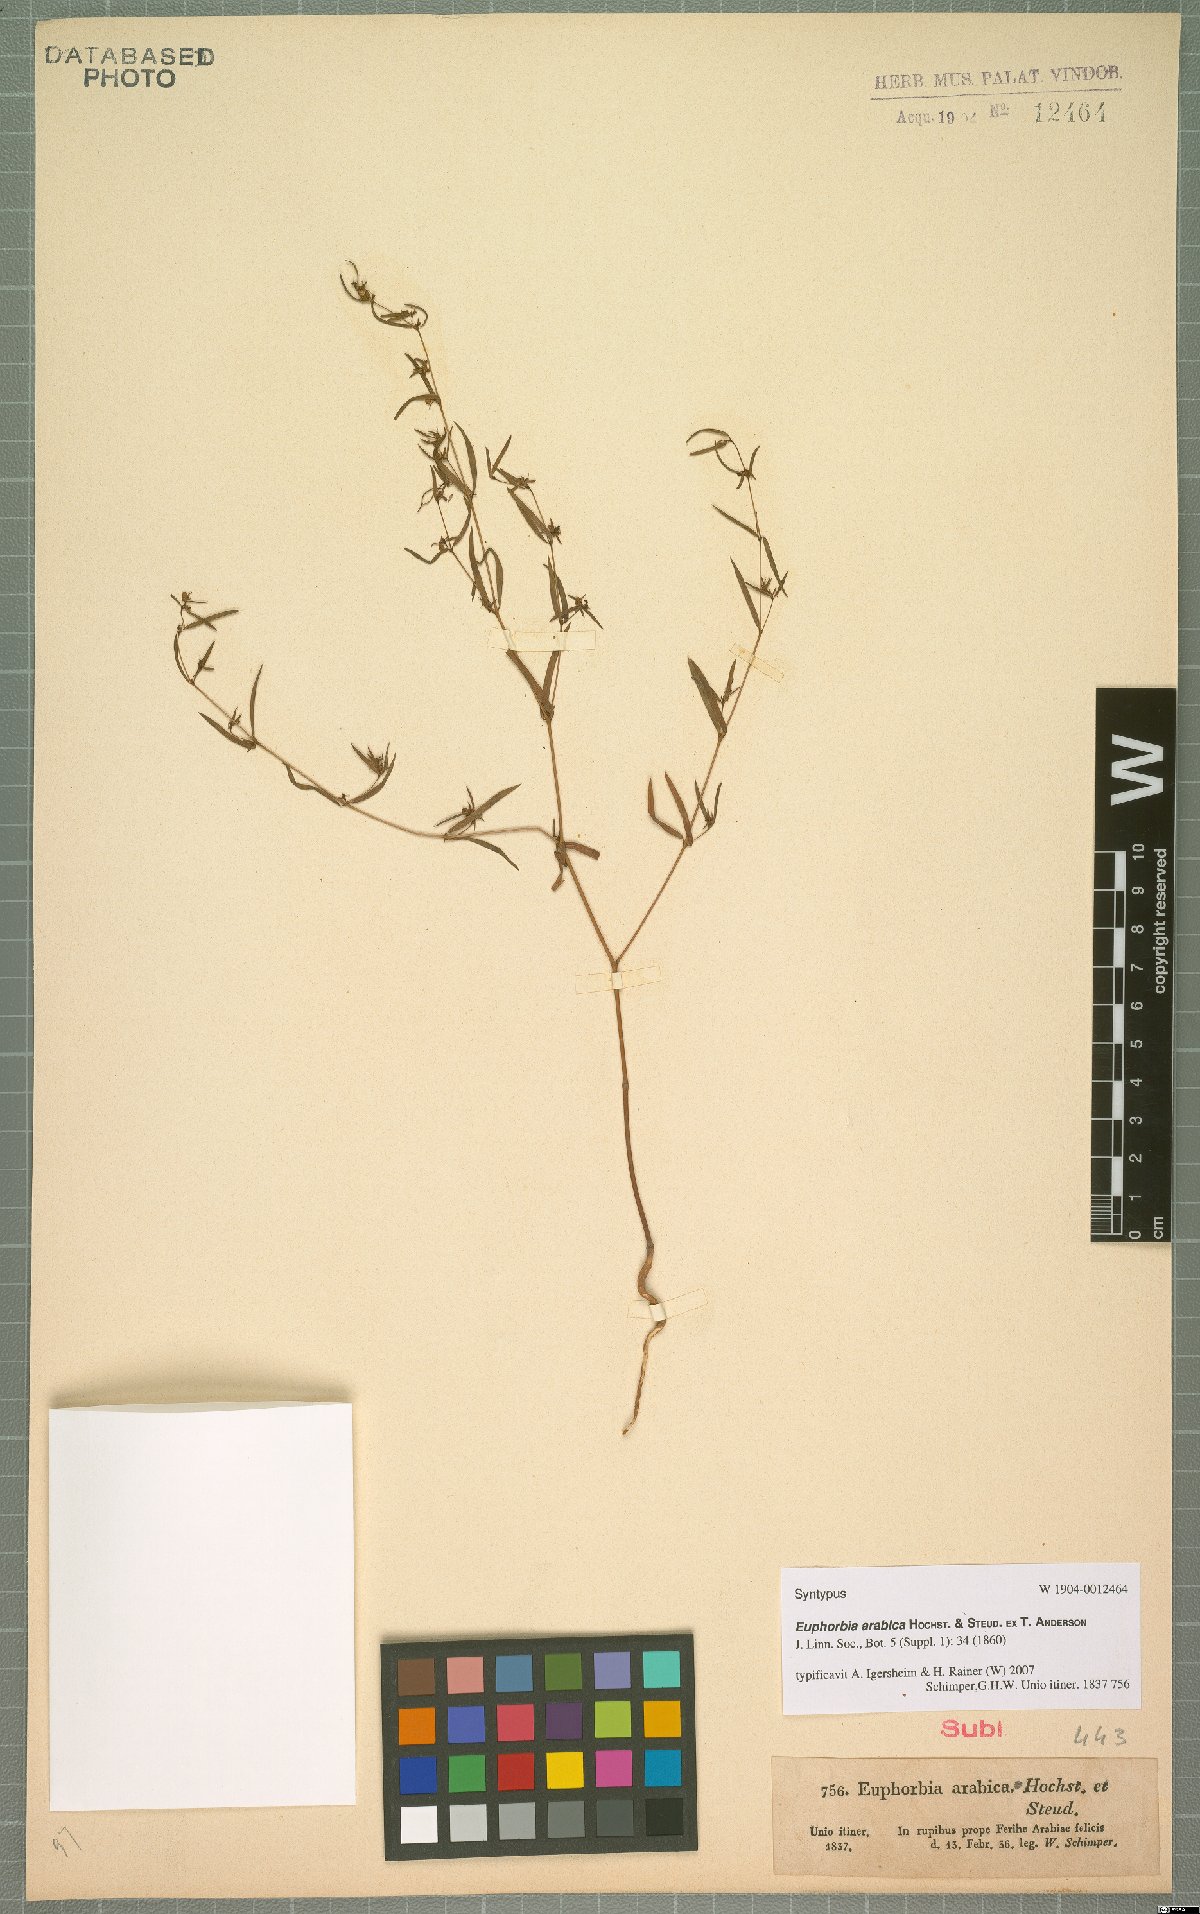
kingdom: Plantae
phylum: Tracheophyta
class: Magnoliopsida
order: Malpighiales
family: Euphorbiaceae
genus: Euphorbia
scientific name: Euphorbia arabica
